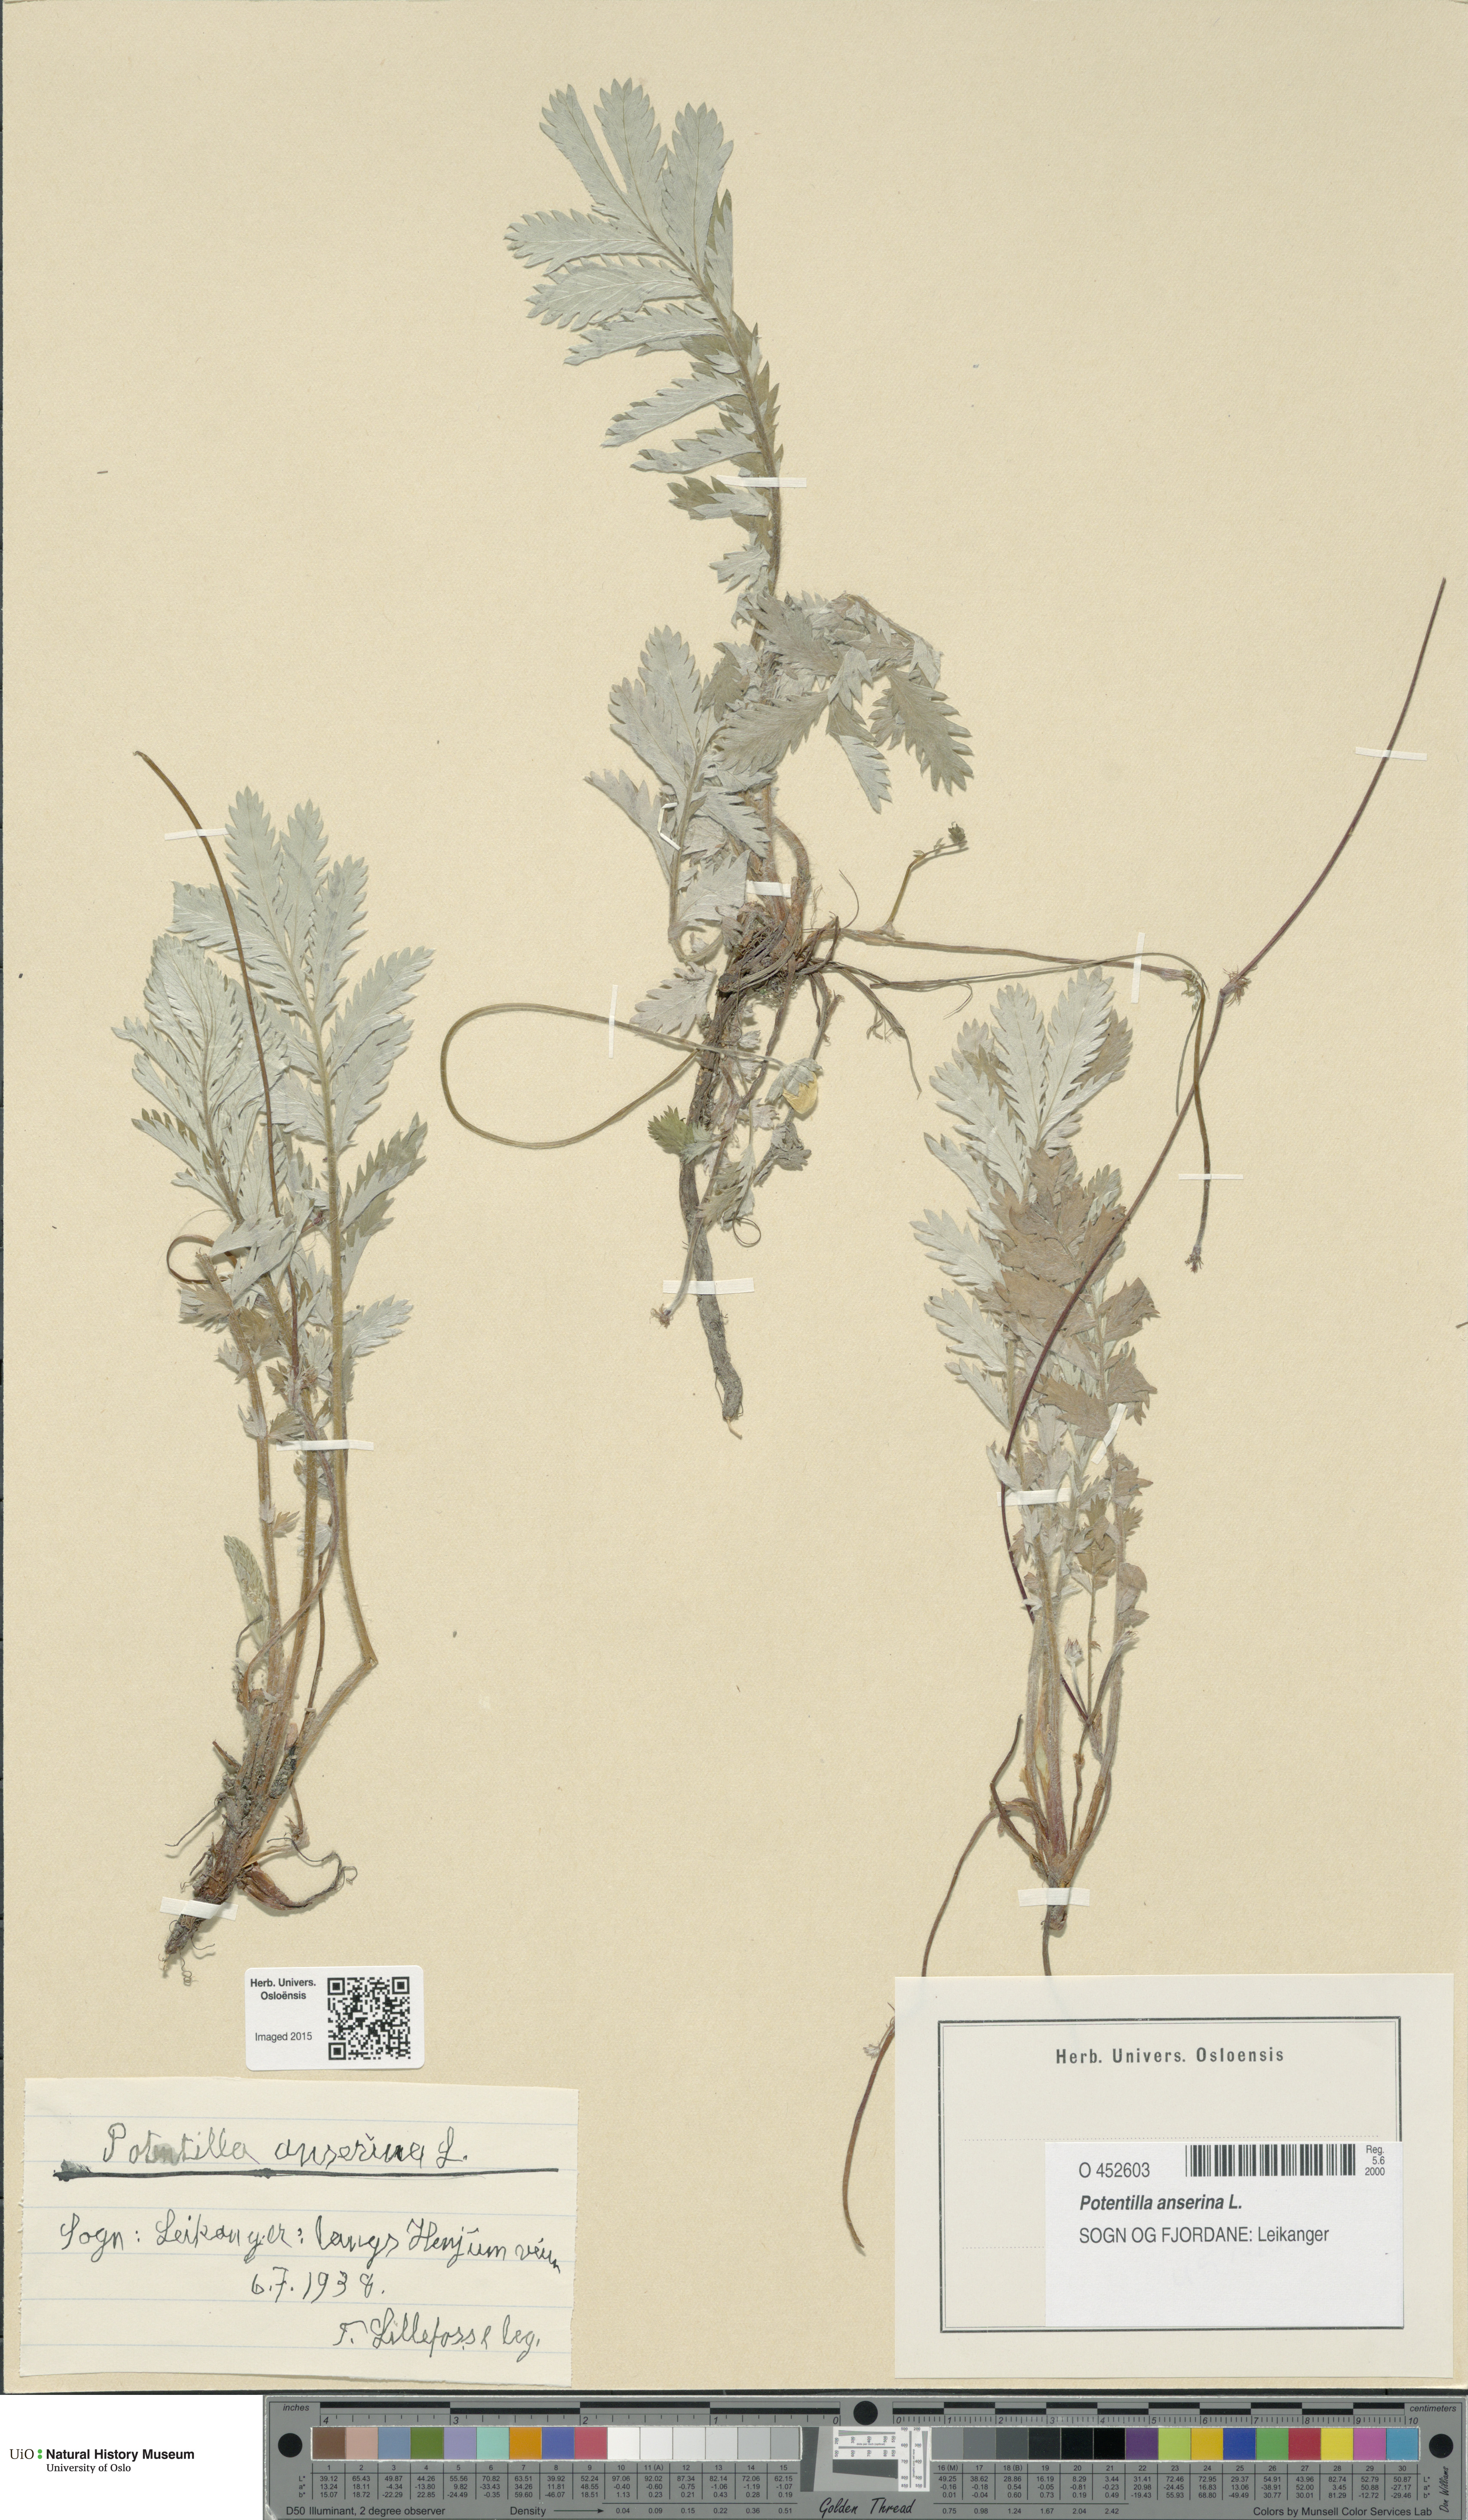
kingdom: Plantae
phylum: Tracheophyta
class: Magnoliopsida
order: Rosales
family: Rosaceae
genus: Argentina
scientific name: Argentina anserina
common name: Common silverweed
